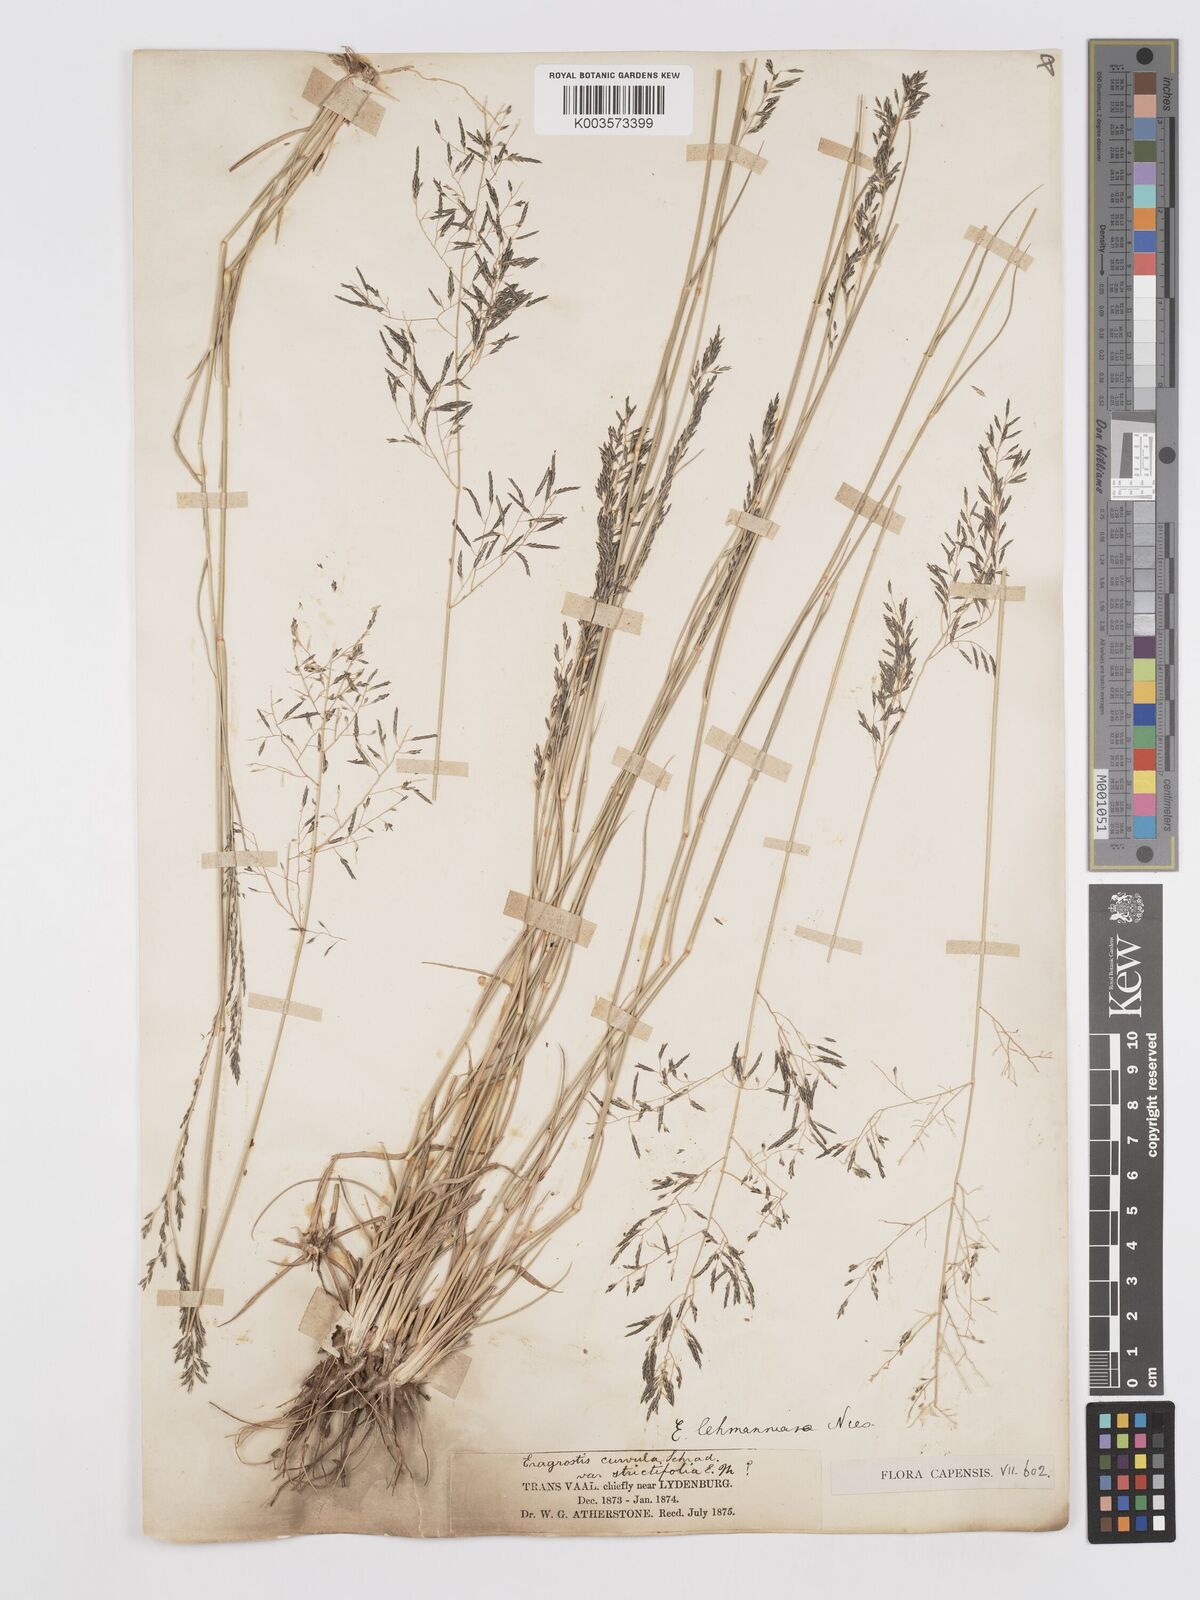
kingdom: Plantae
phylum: Tracheophyta
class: Liliopsida
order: Poales
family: Poaceae
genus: Eragrostis
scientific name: Eragrostis lehmanniana
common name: Lehmann lovegrass
